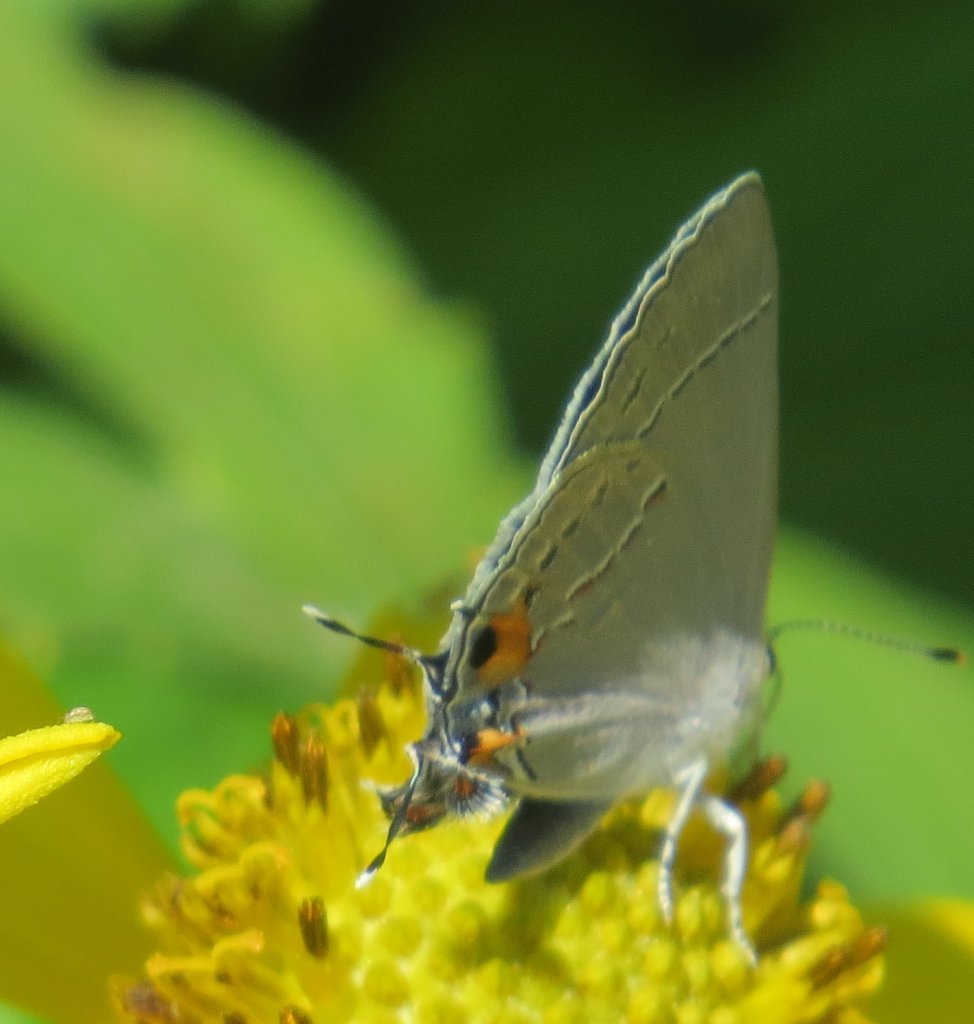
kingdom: Animalia
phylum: Arthropoda
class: Insecta
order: Lepidoptera
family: Lycaenidae
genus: Strymon
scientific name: Strymon melinus
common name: Gray Hairstreak
